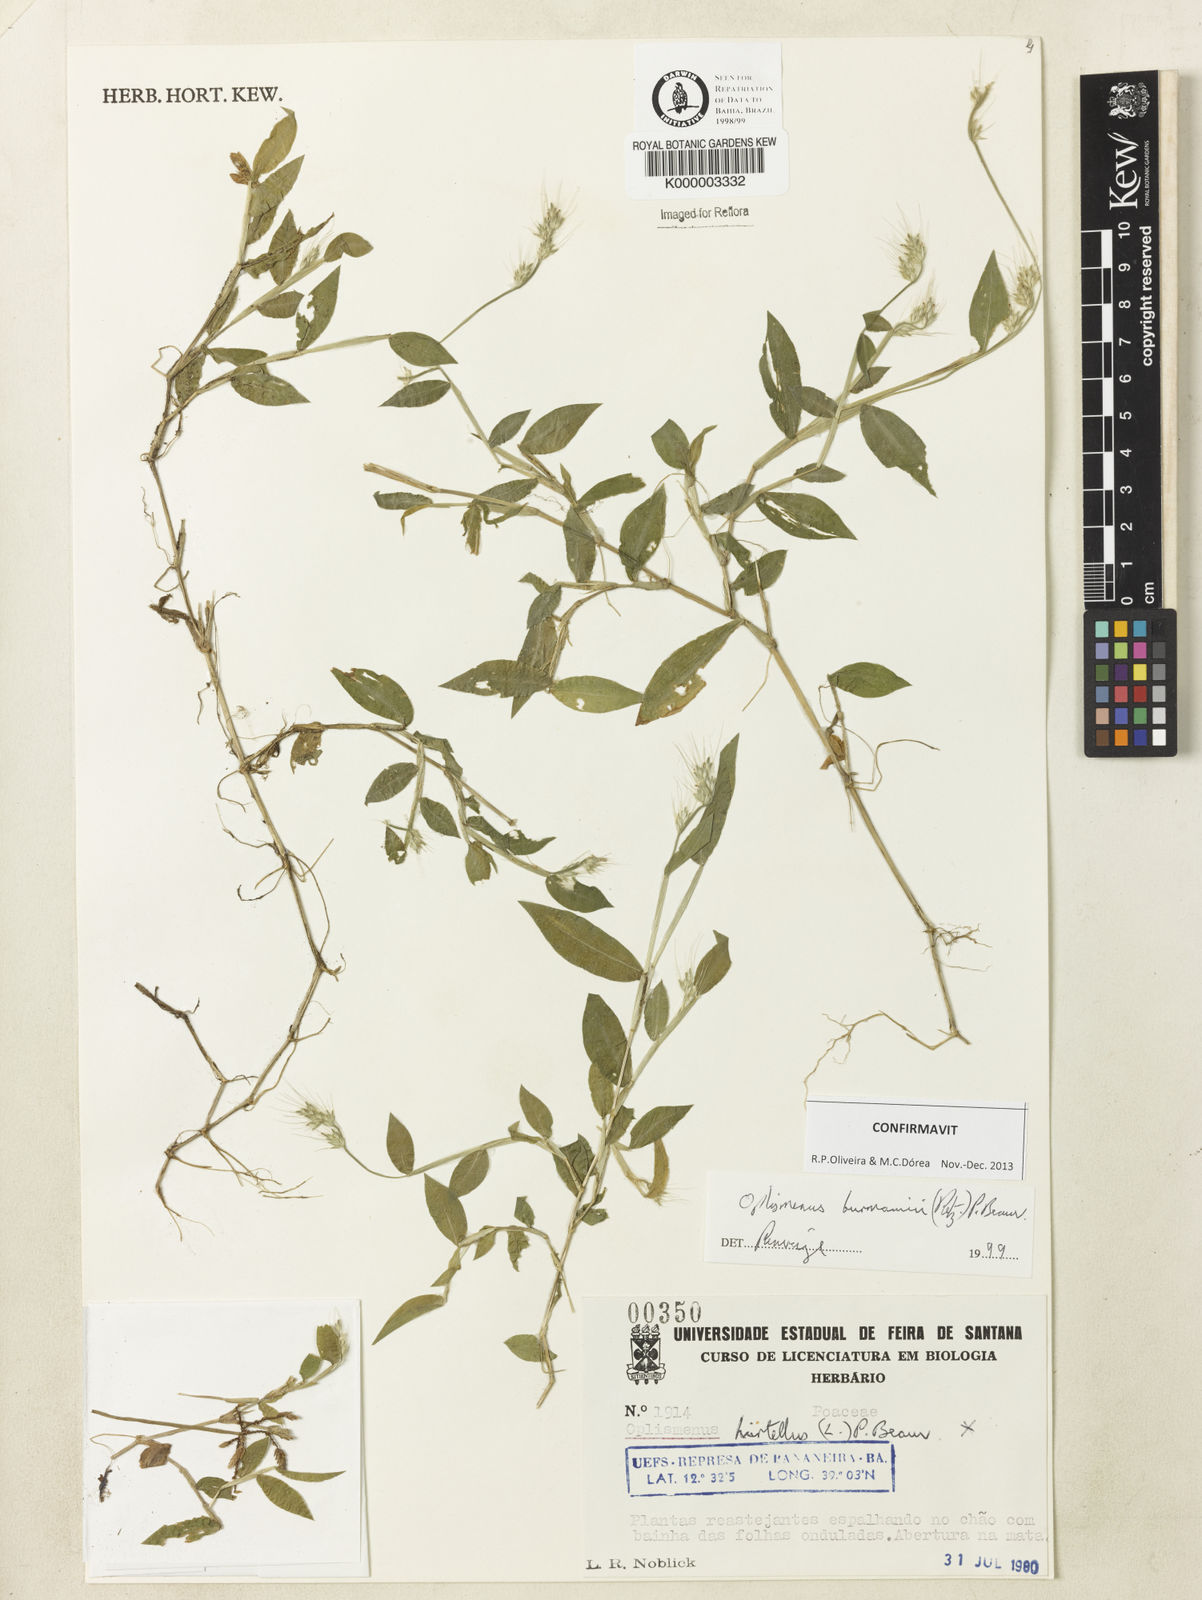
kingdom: Plantae
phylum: Tracheophyta
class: Liliopsida
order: Poales
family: Poaceae
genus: Oplismenus
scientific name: Oplismenus burmanni
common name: Burmann's basketgrass
